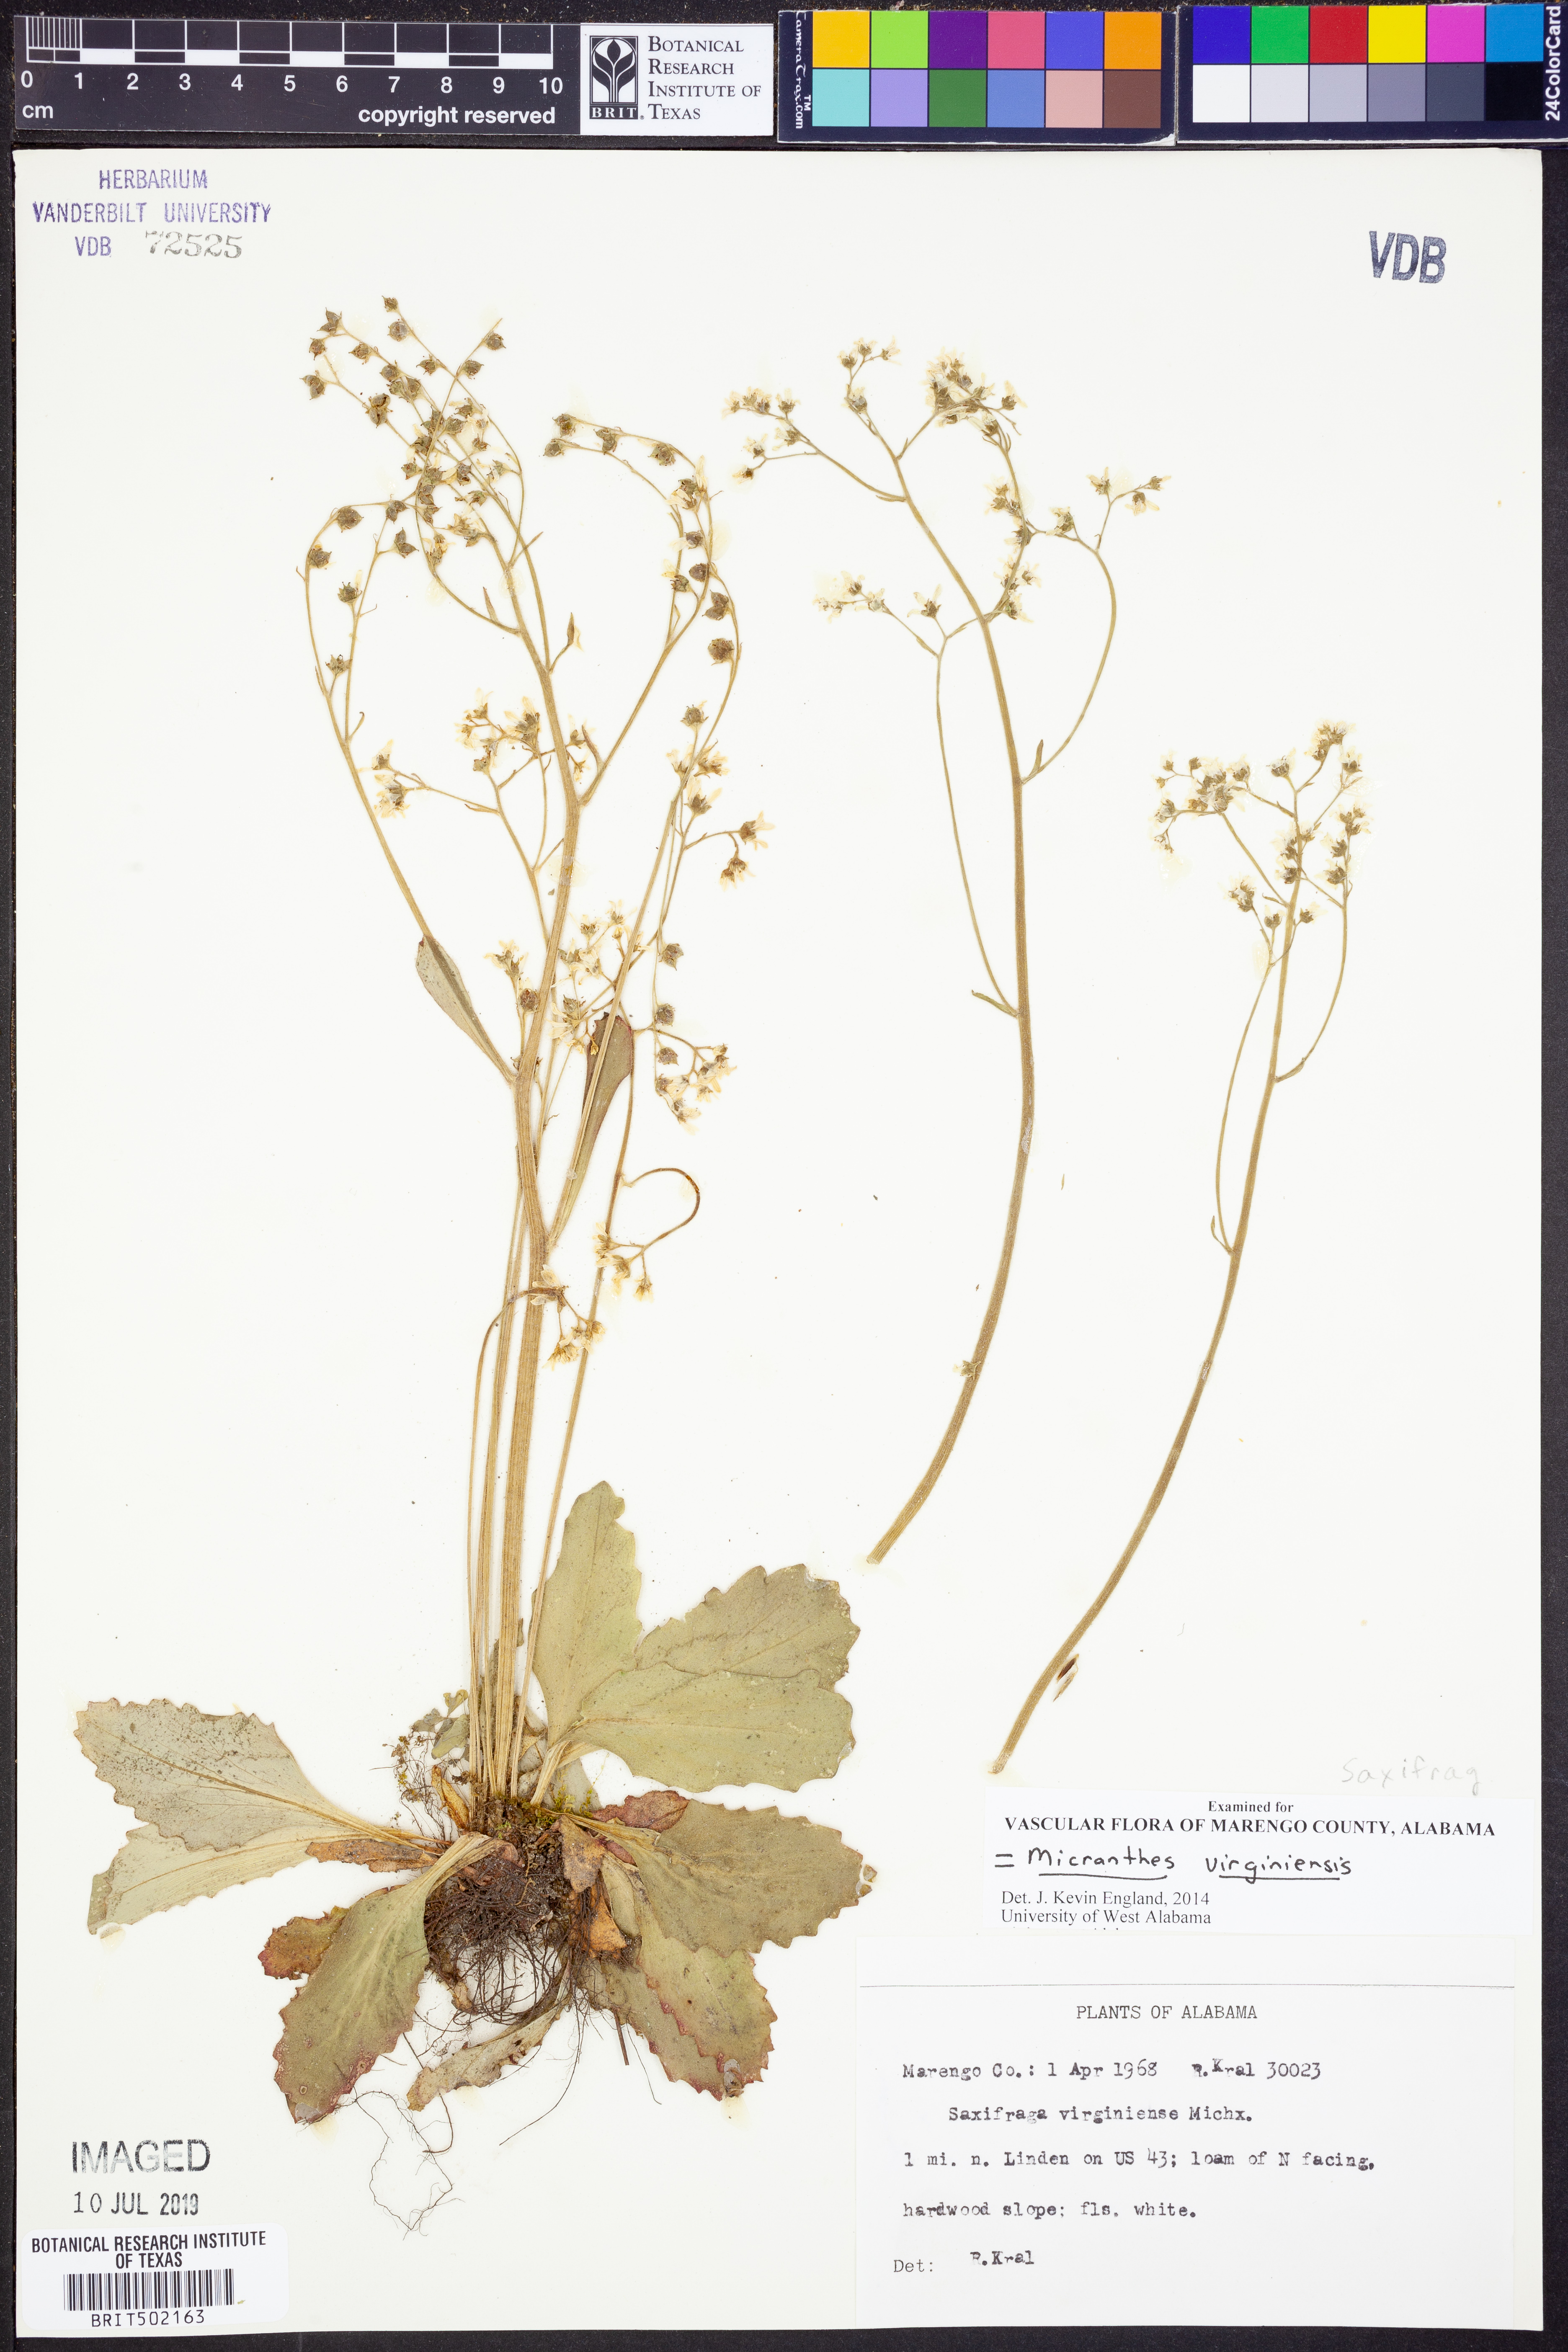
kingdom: Plantae
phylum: Tracheophyta
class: Magnoliopsida
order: Saxifragales
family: Saxifragaceae
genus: Micranthes
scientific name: Micranthes virginiensis
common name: Early saxifrage
